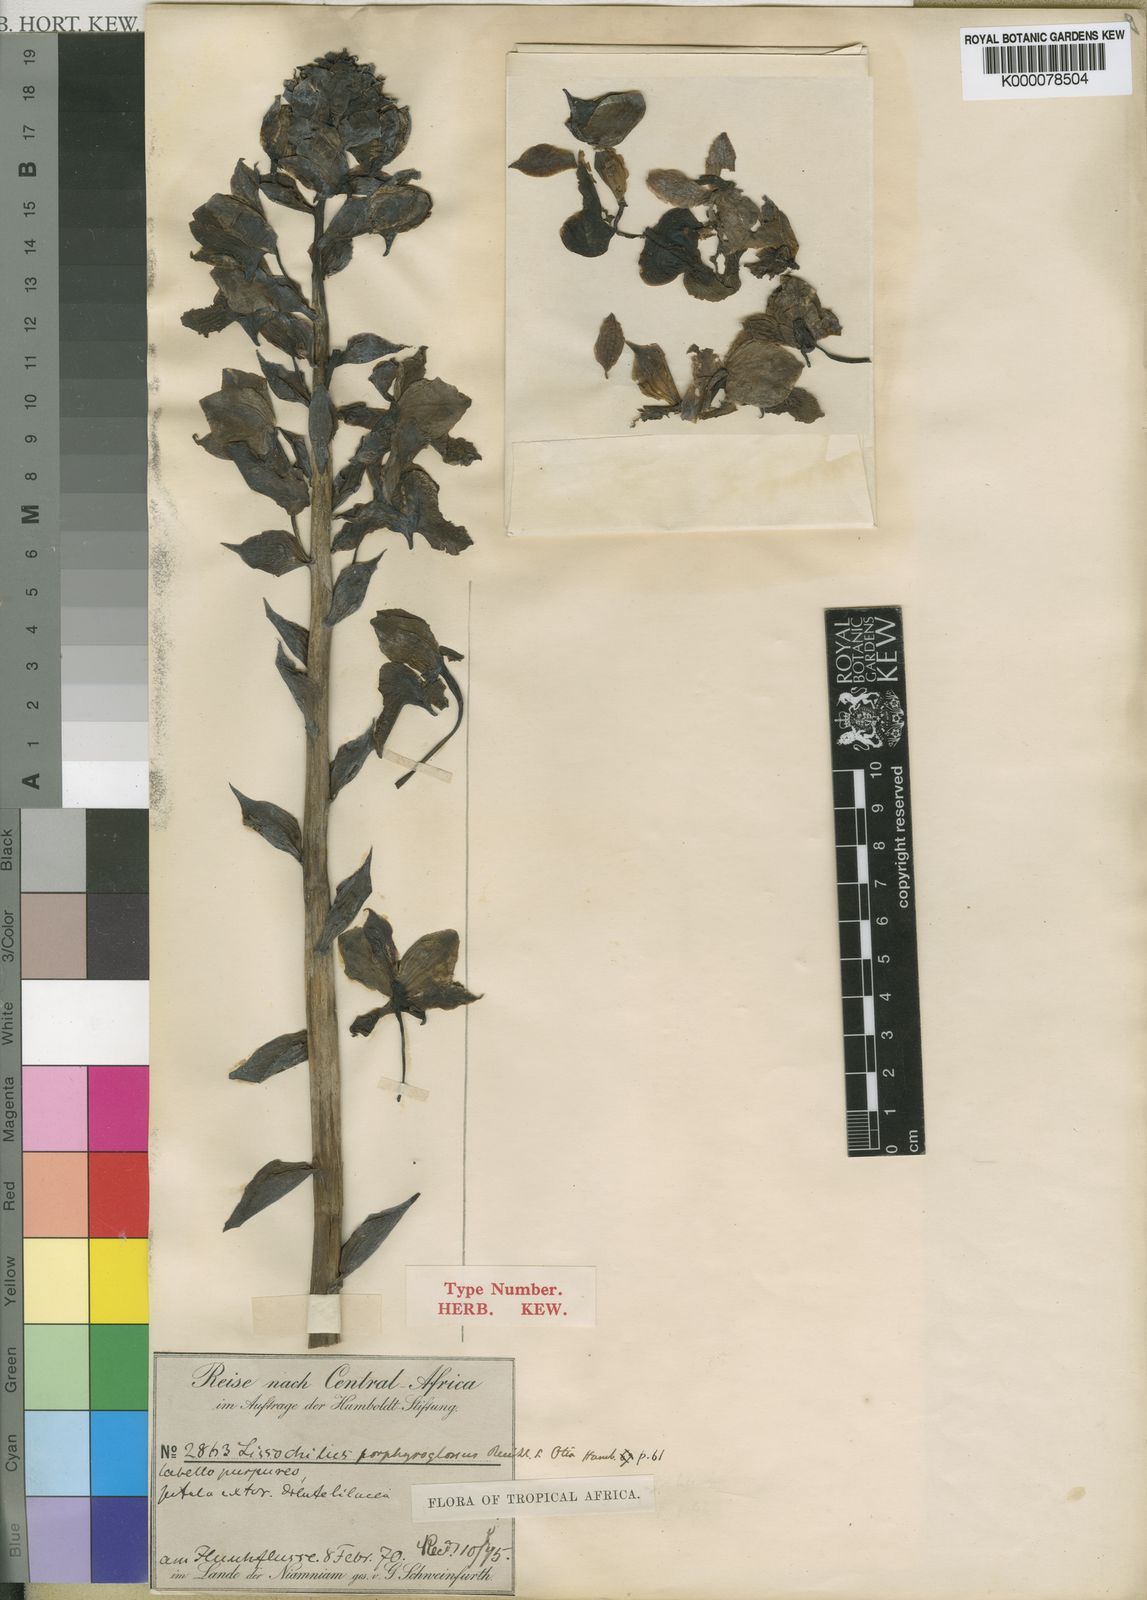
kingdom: Plantae
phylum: Tracheophyta
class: Liliopsida
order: Asparagales
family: Orchidaceae
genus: Eulophia
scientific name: Eulophia horsfallii
